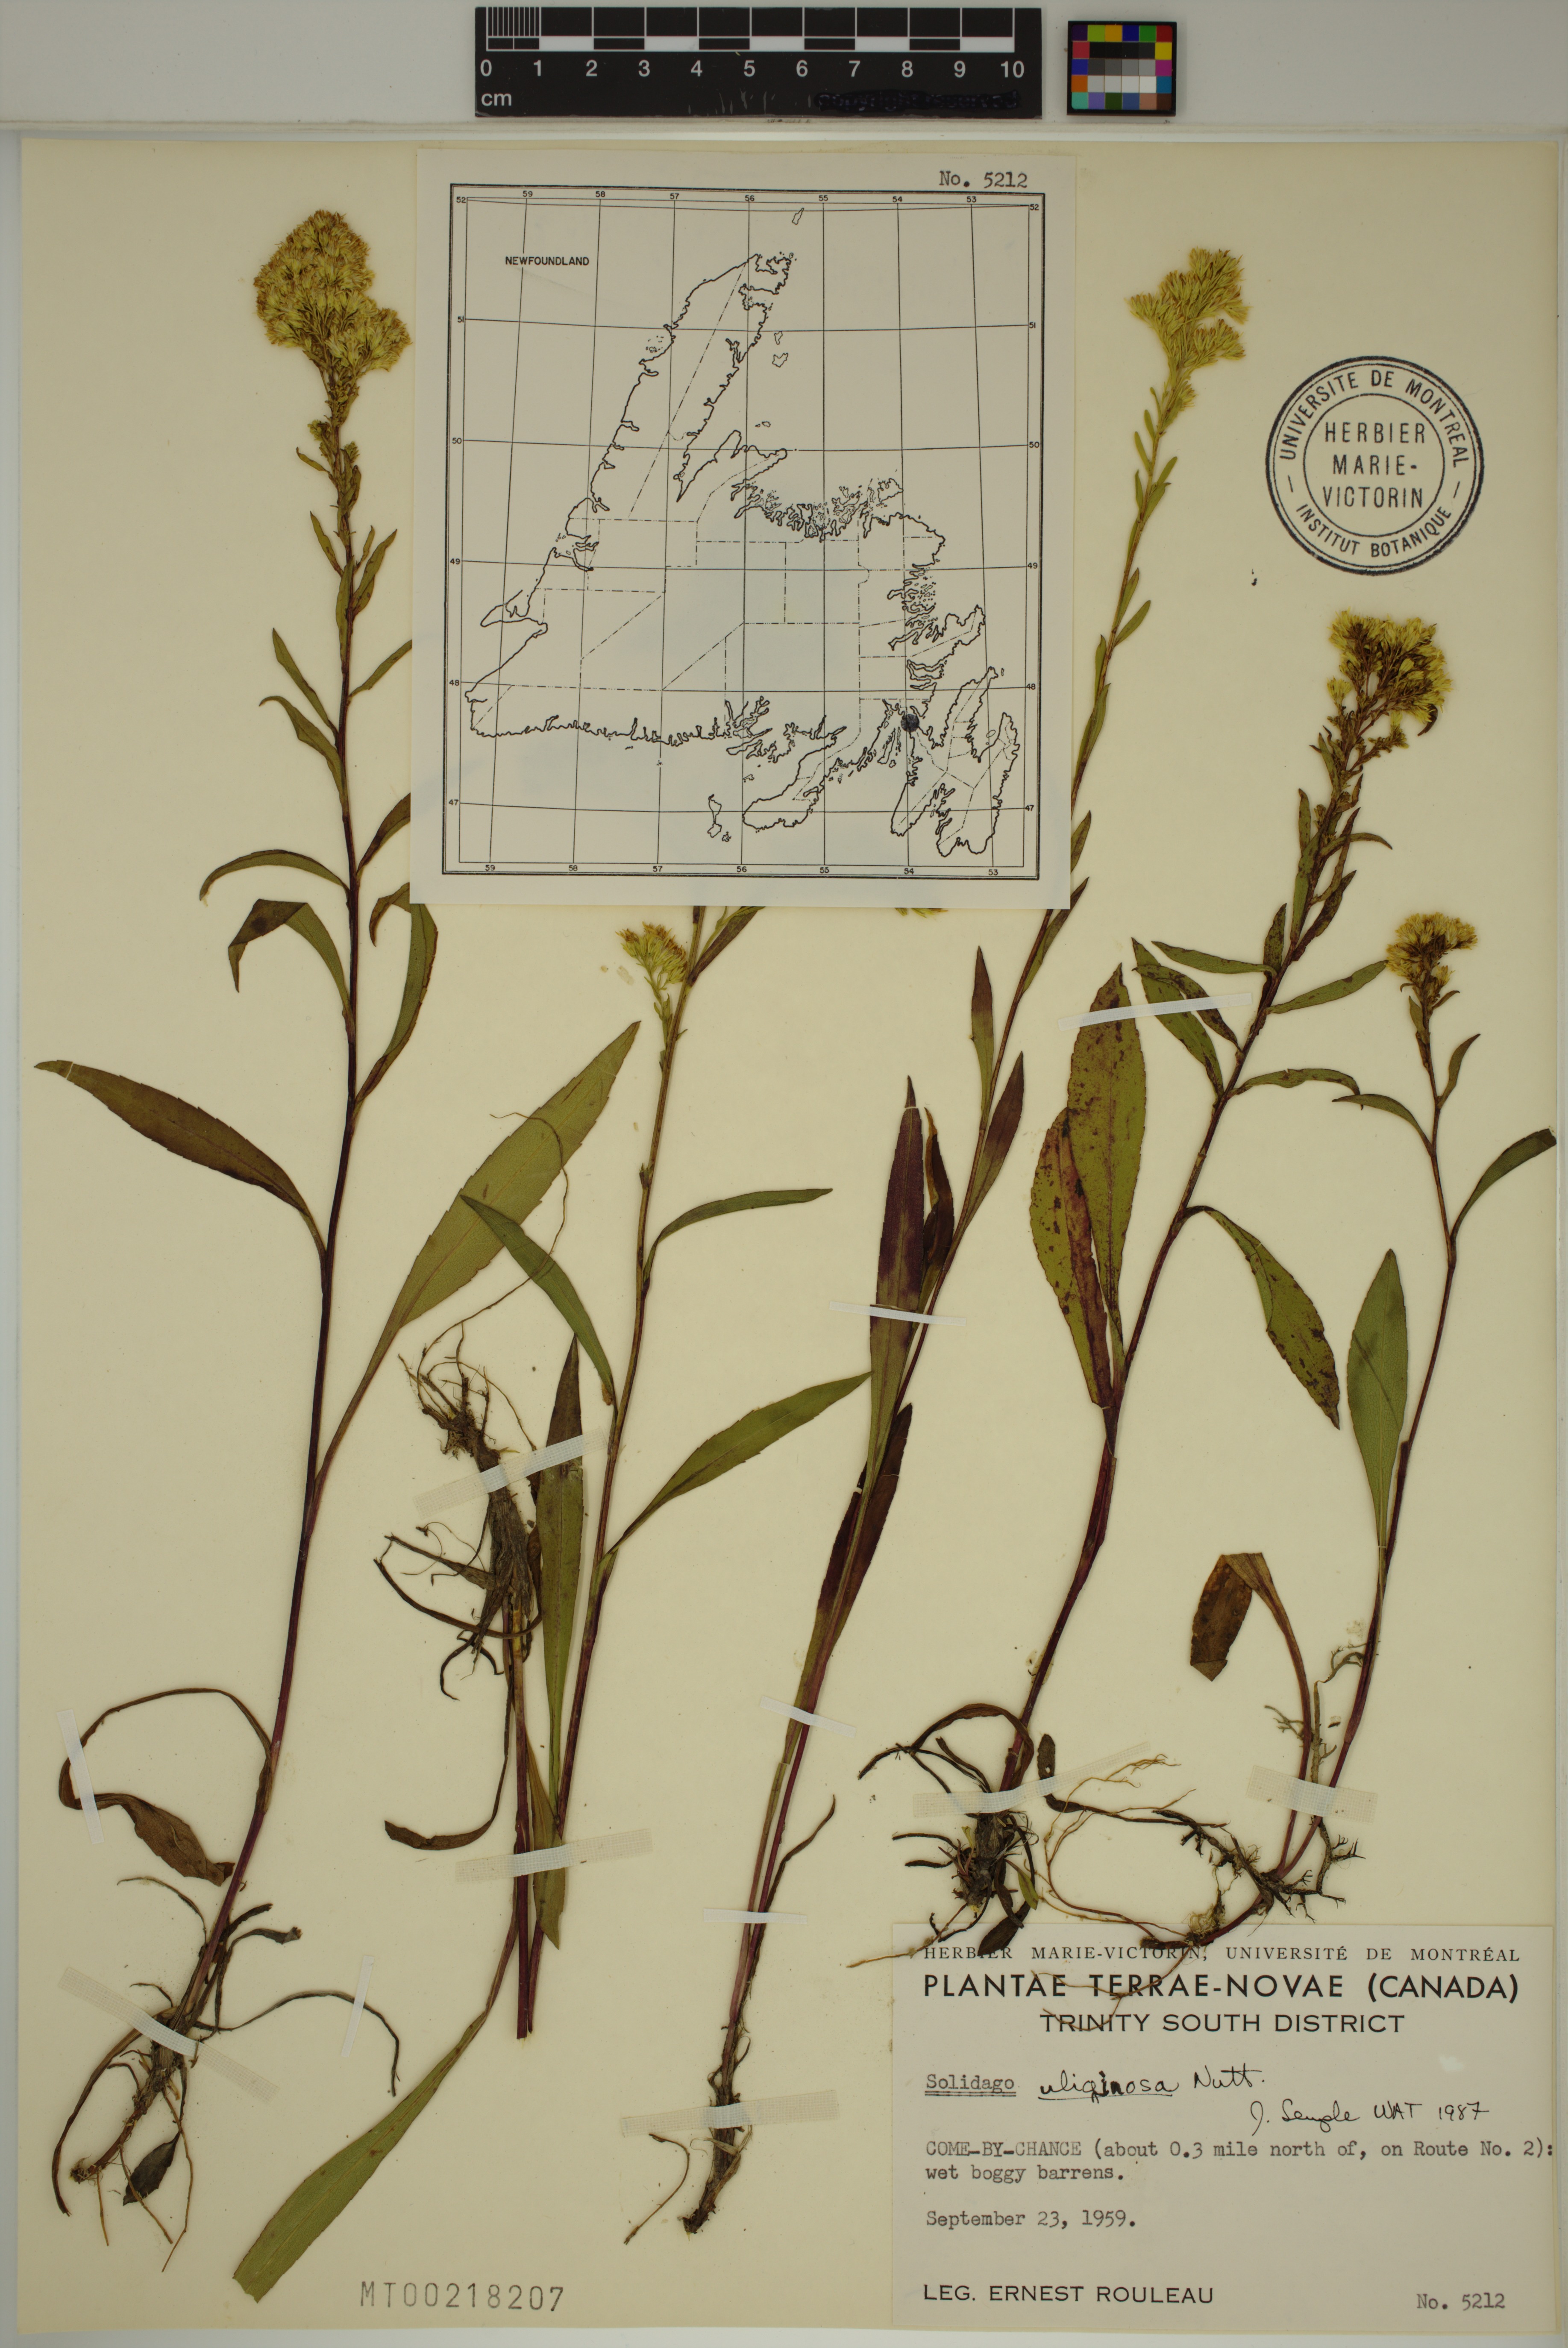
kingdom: Plantae
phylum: Tracheophyta
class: Magnoliopsida
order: Asterales
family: Asteraceae
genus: Solidago
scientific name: Solidago uliginosa
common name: Bog goldenrod
